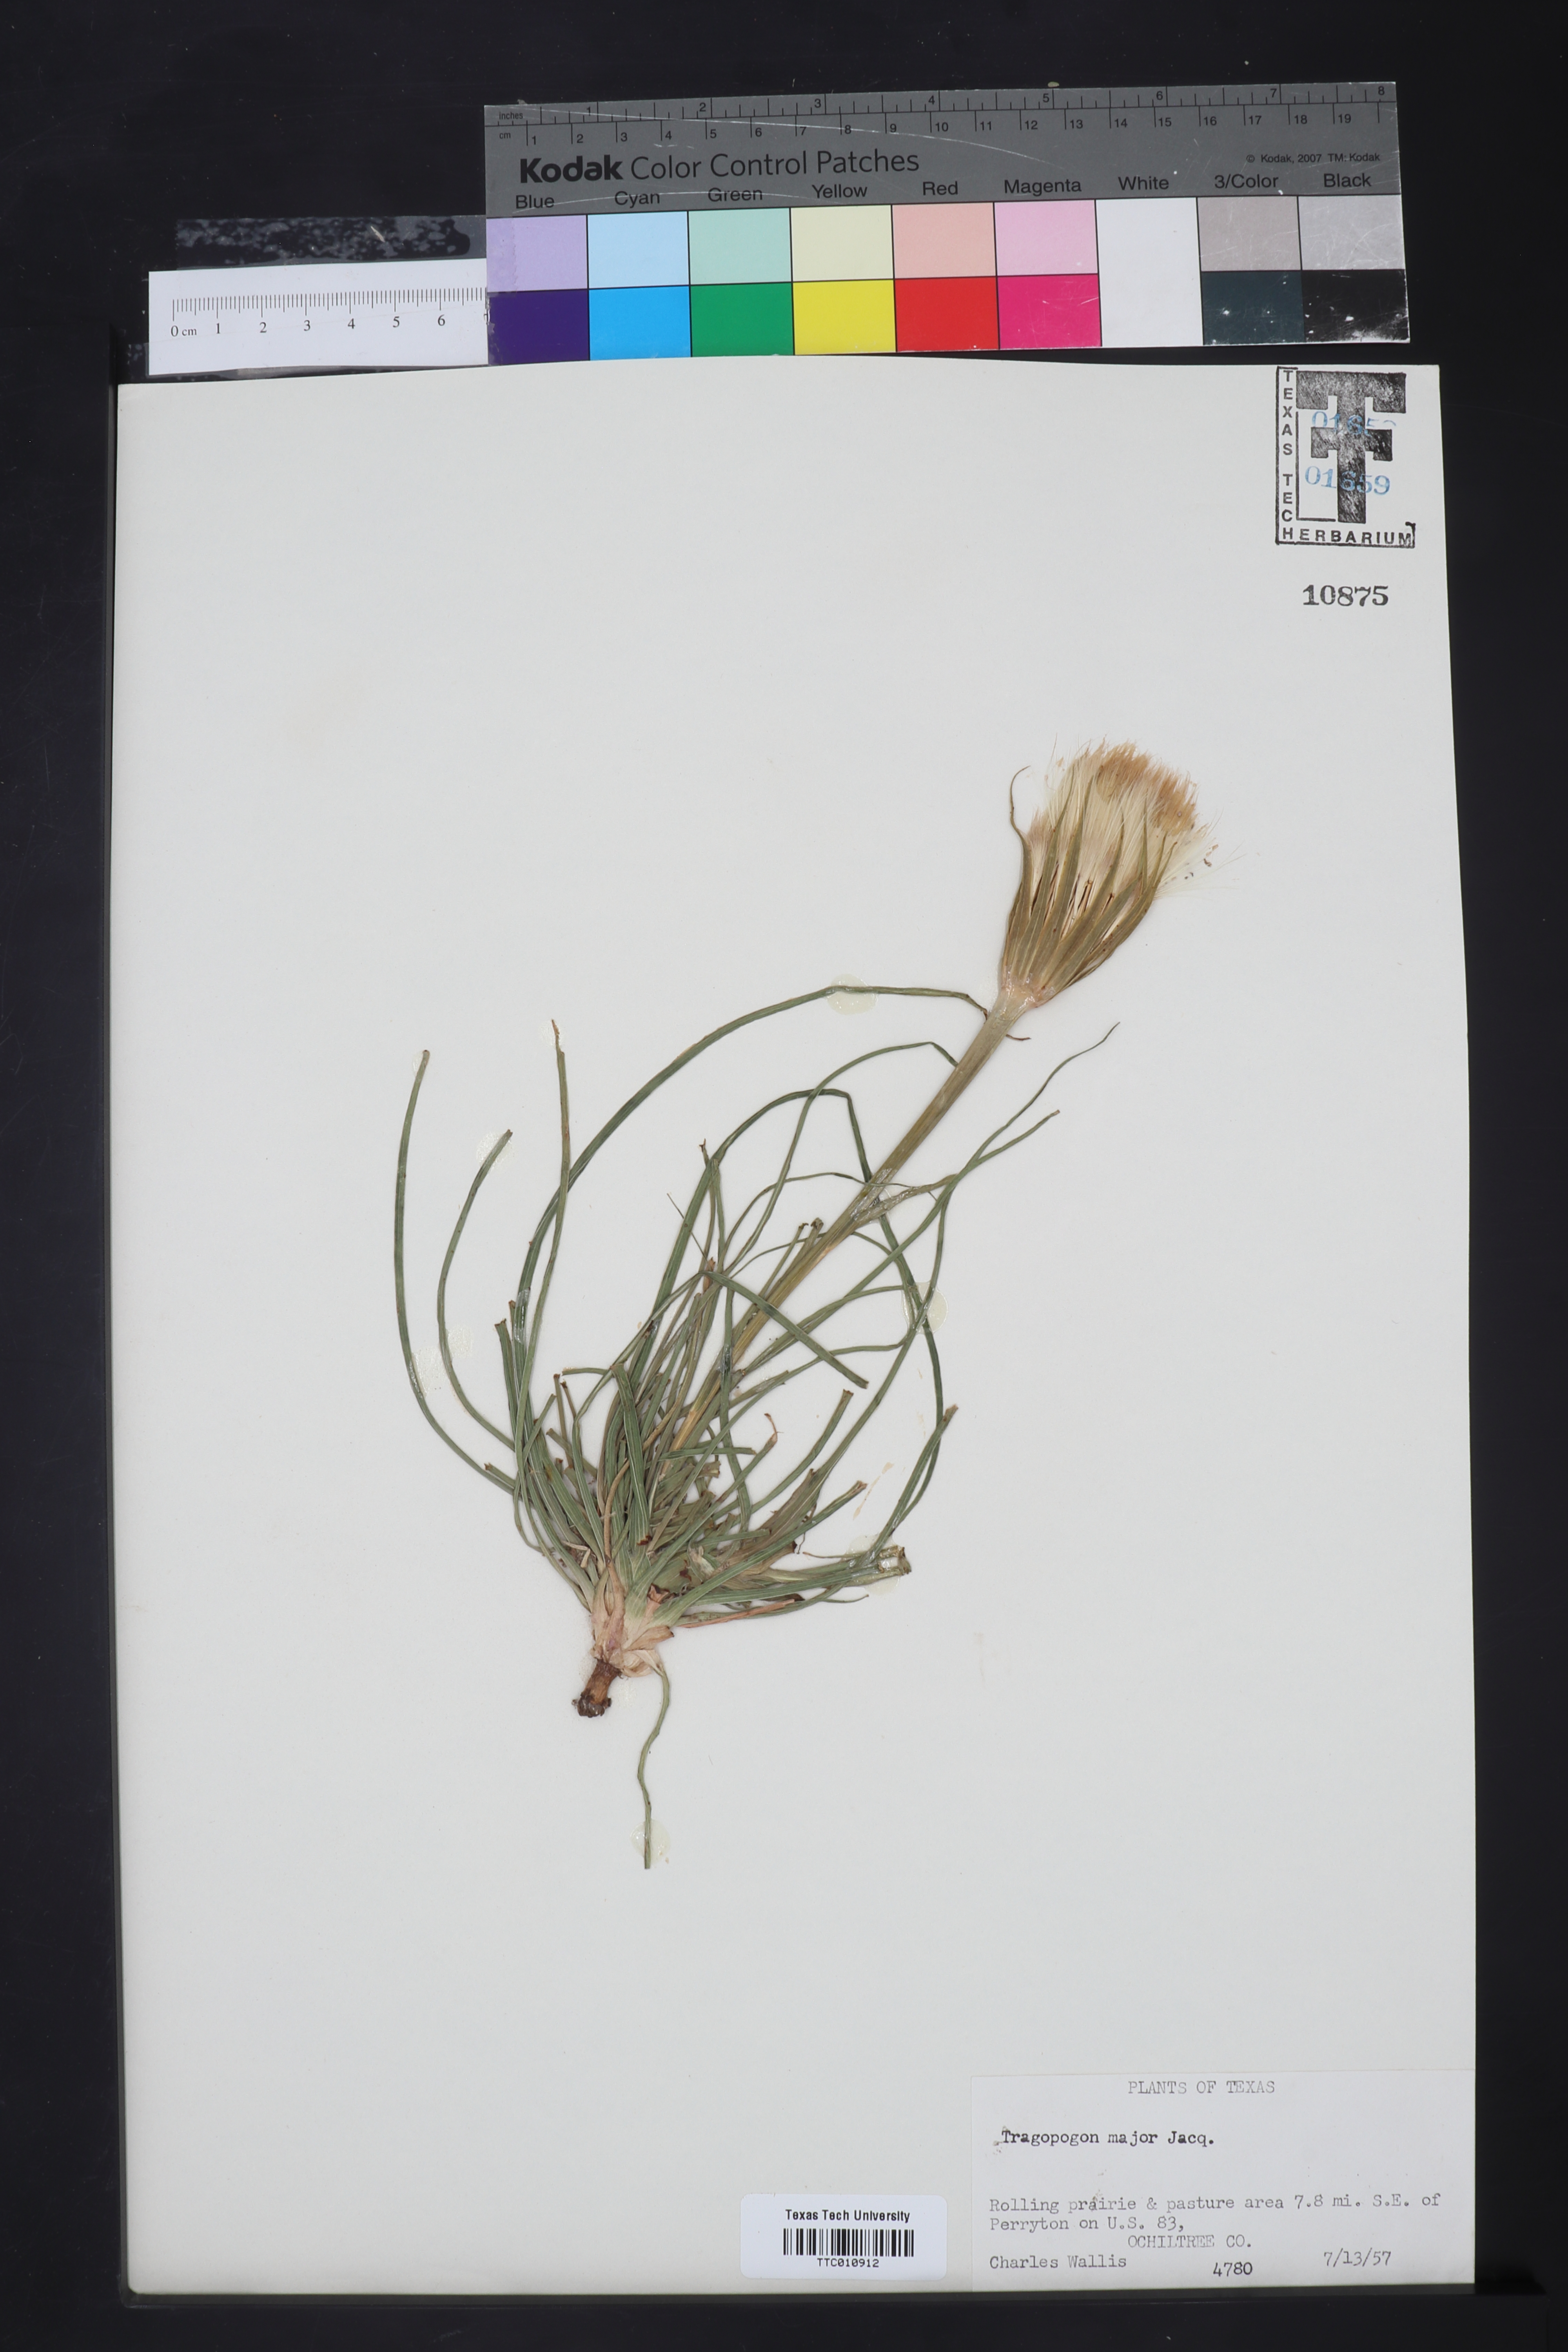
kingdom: Plantae
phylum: Tracheophyta
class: Magnoliopsida
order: Asterales
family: Asteraceae
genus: Tragopogon
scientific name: Tragopogon dubius
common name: Yellow salsify
